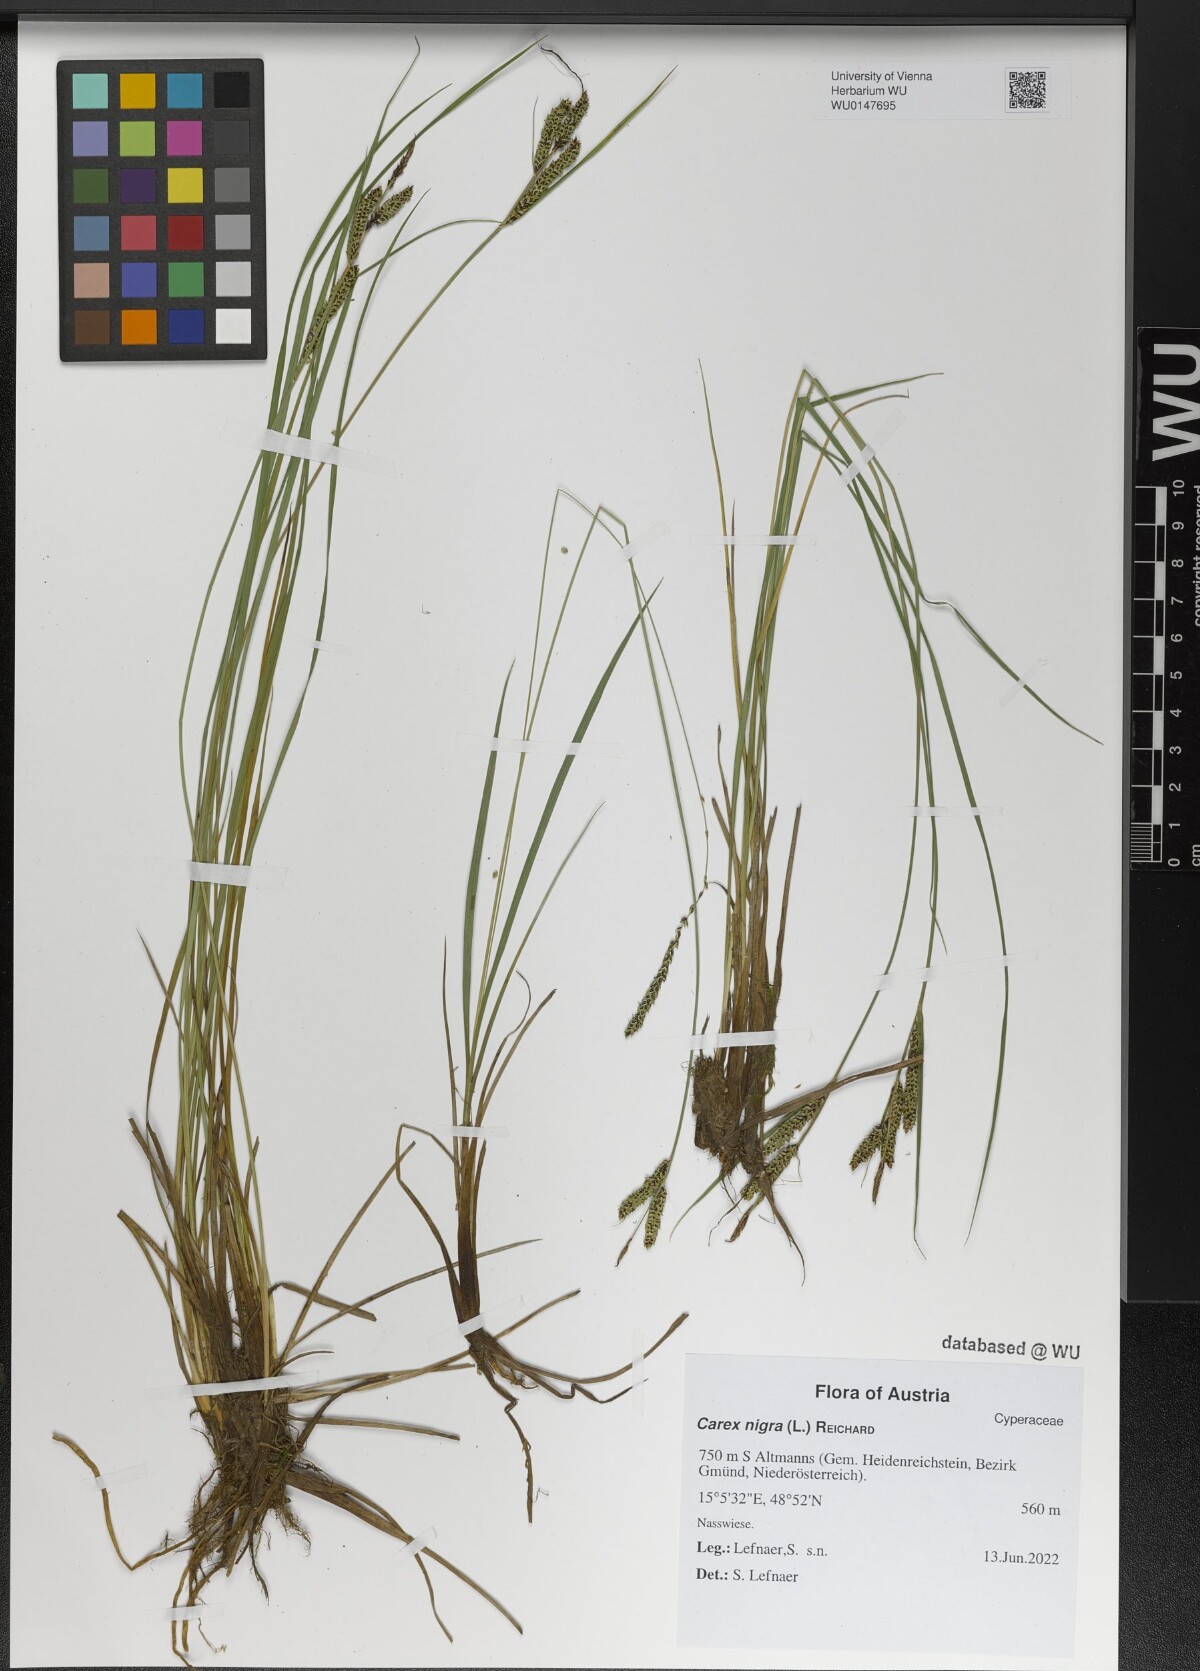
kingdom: Plantae
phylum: Tracheophyta
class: Liliopsida
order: Poales
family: Cyperaceae
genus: Carex
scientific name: Carex nigra
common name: Common sedge
